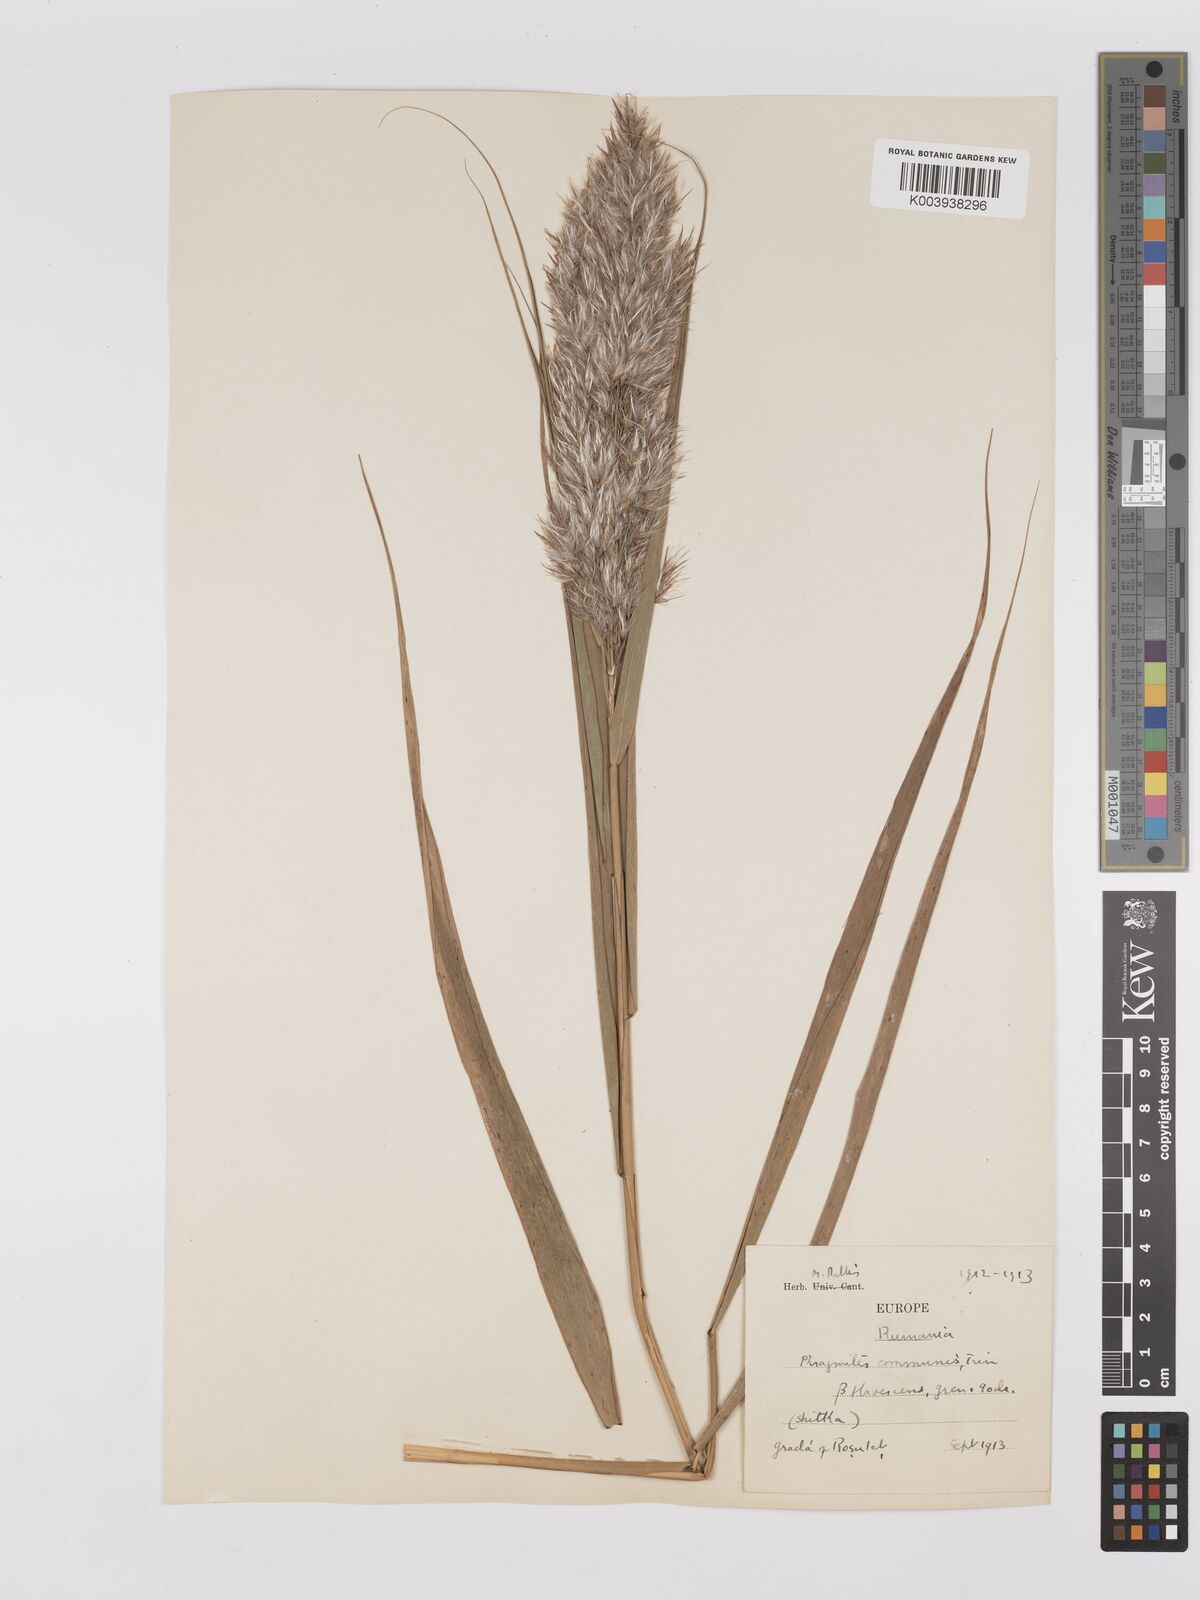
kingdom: Plantae
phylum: Tracheophyta
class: Liliopsida
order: Poales
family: Poaceae
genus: Phragmites
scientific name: Phragmites australis
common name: Common reed
